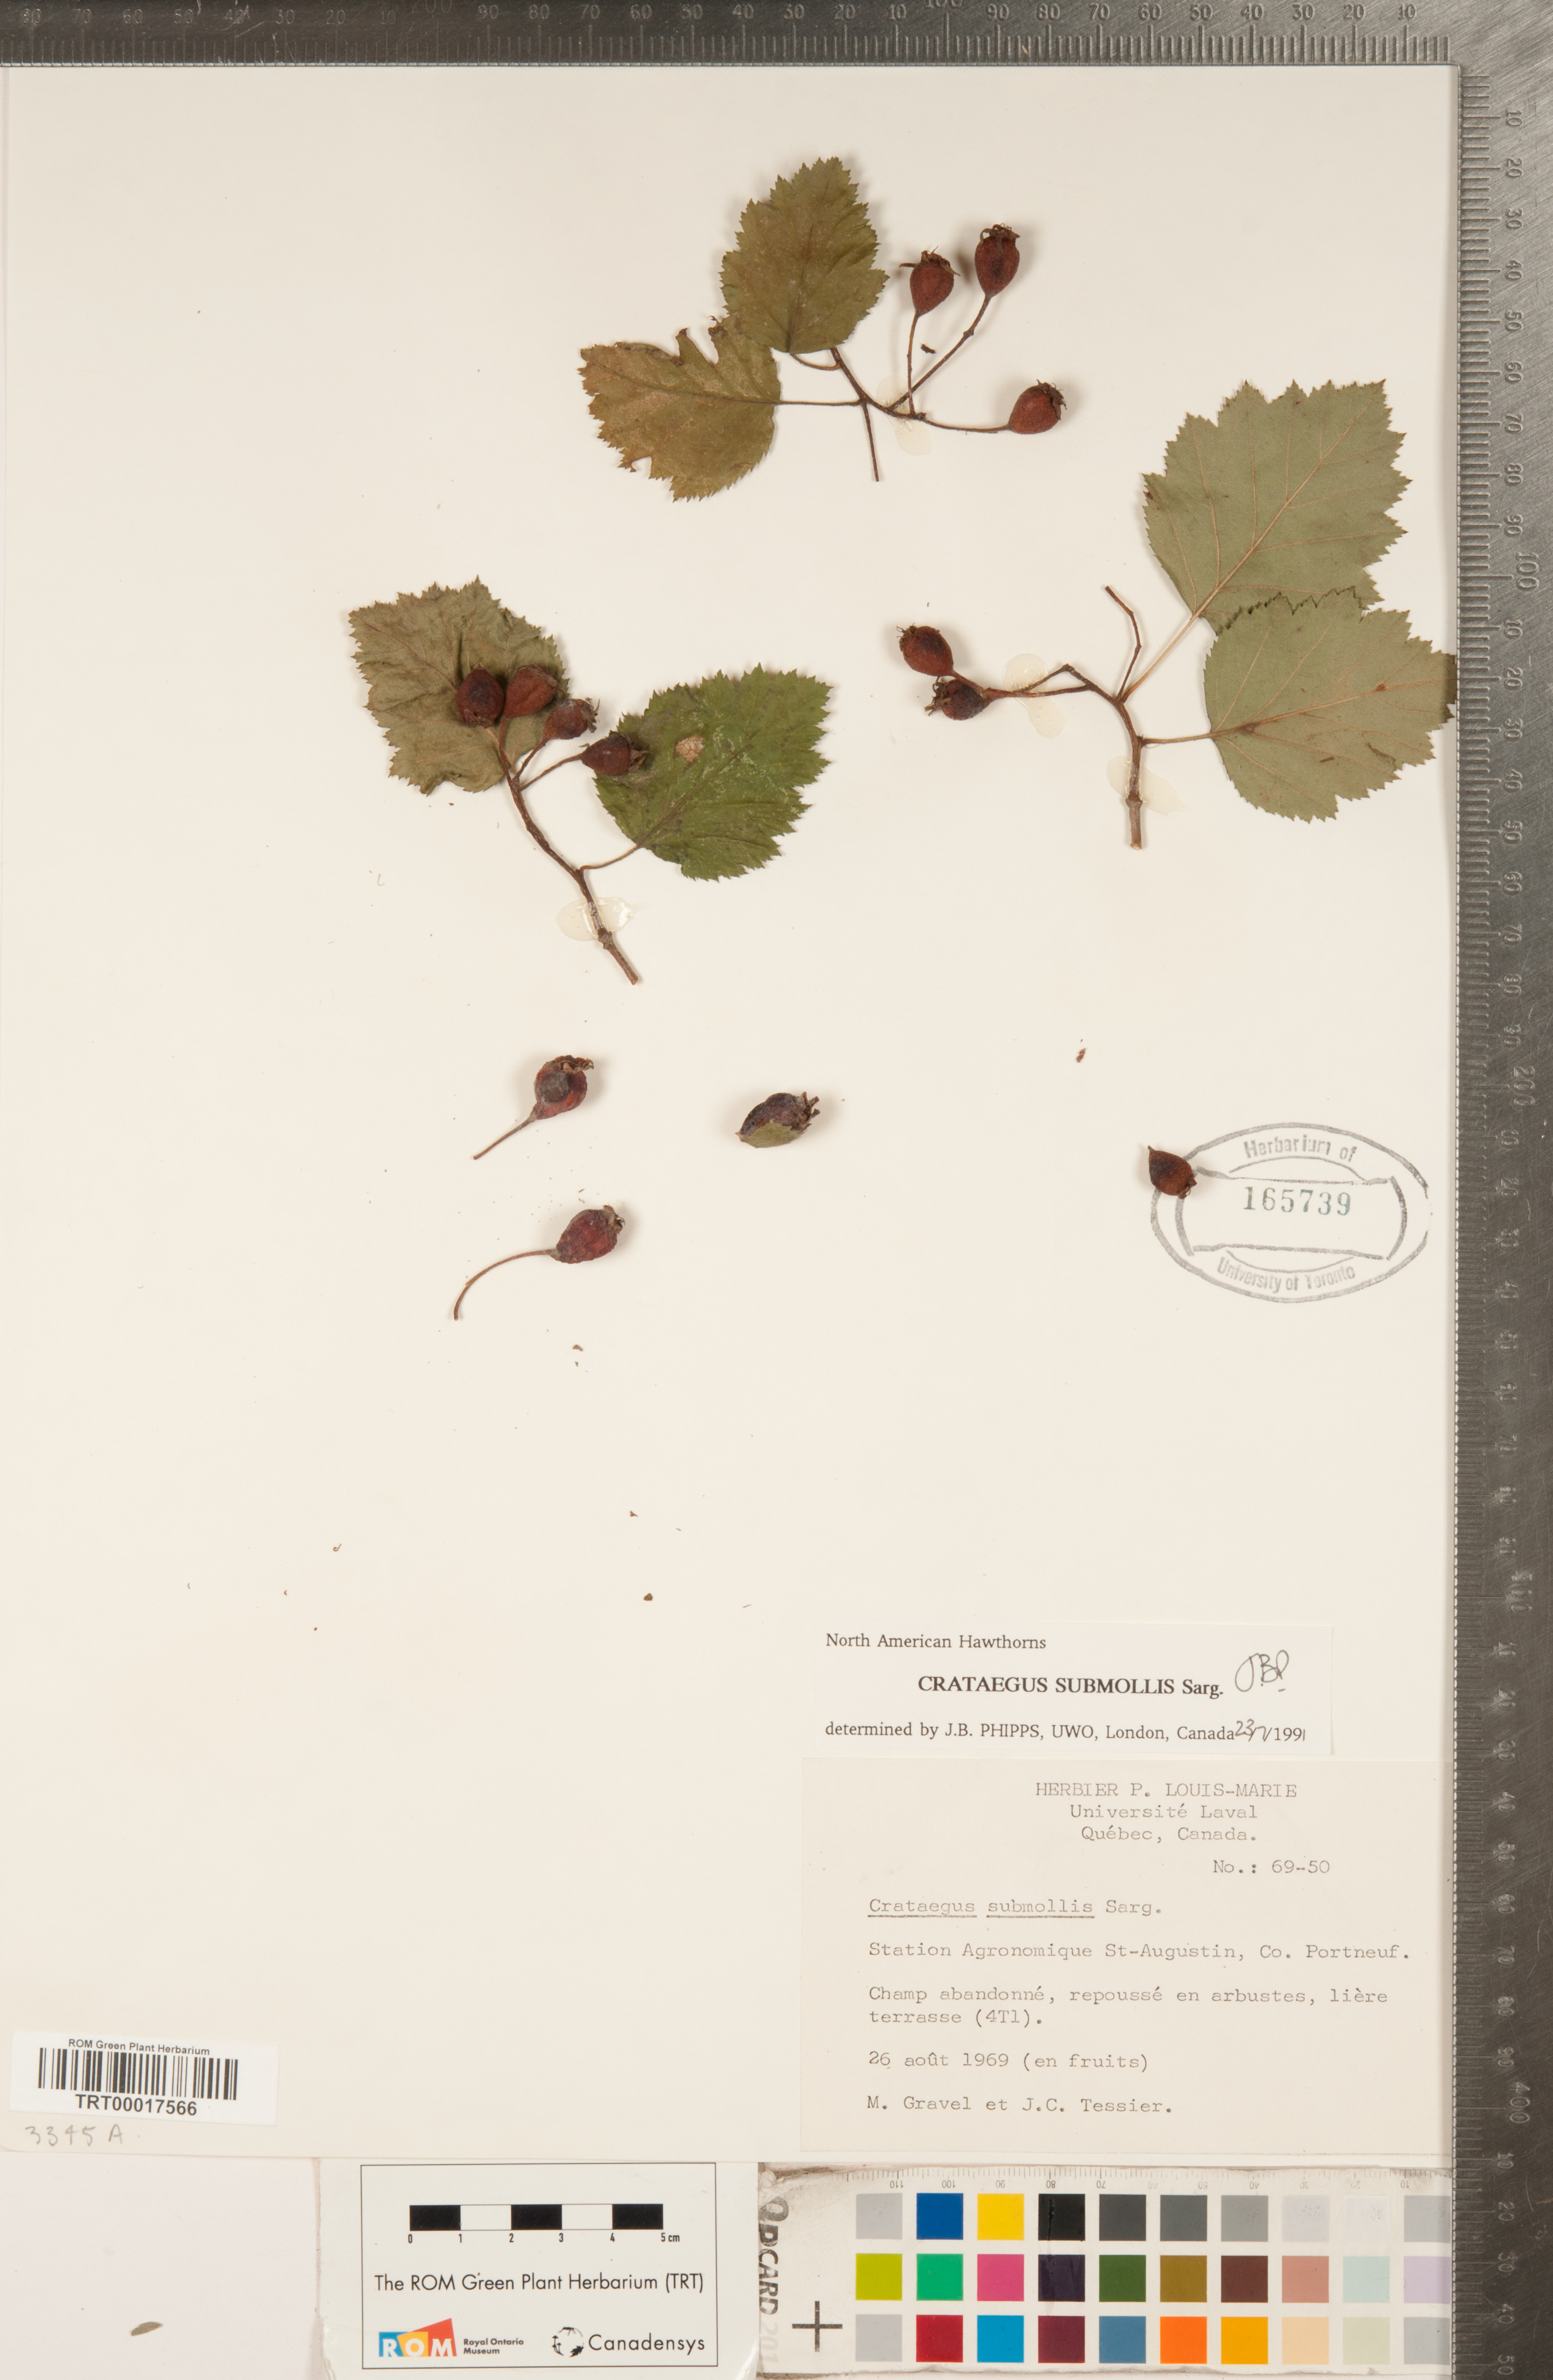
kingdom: Plantae
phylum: Tracheophyta
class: Magnoliopsida
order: Rosales
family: Rosaceae
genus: Crataegus
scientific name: Crataegus submollis
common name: Hairy cockspurthorn
